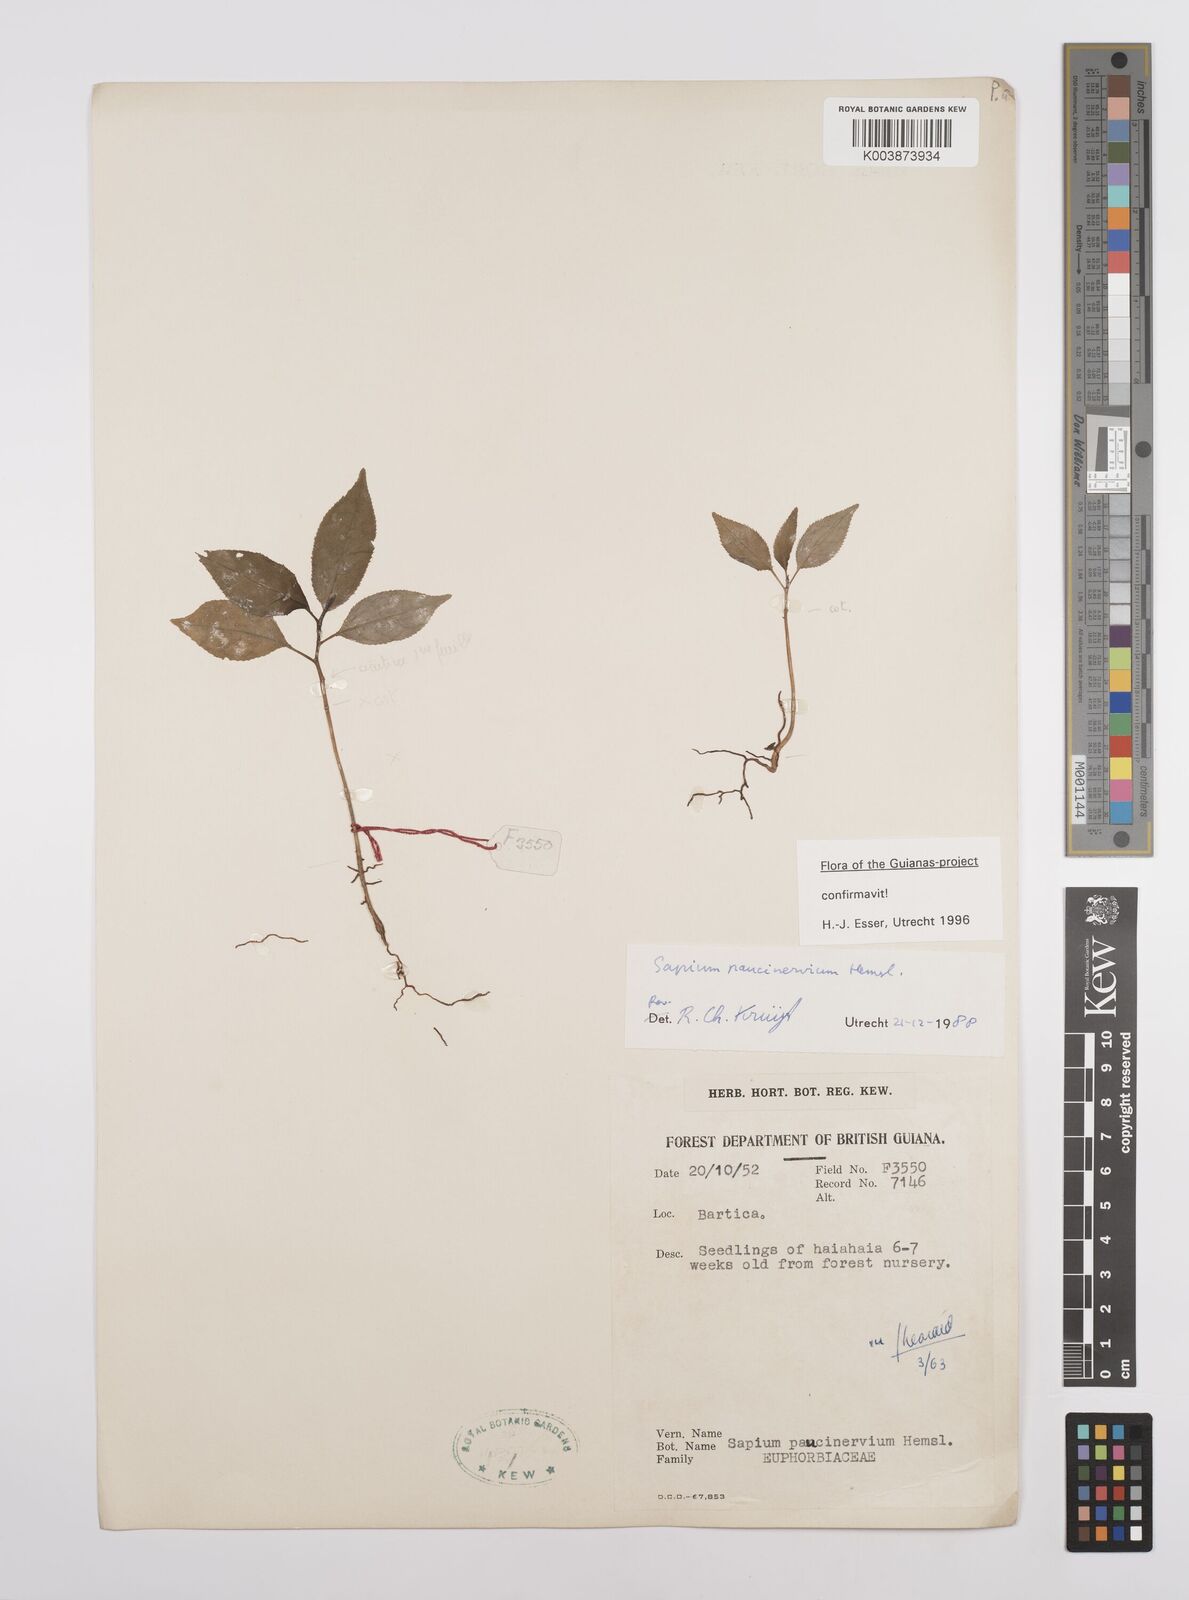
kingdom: Plantae
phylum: Tracheophyta
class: Magnoliopsida
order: Malpighiales
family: Euphorbiaceae
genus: Sapium
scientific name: Sapium paucinervium
